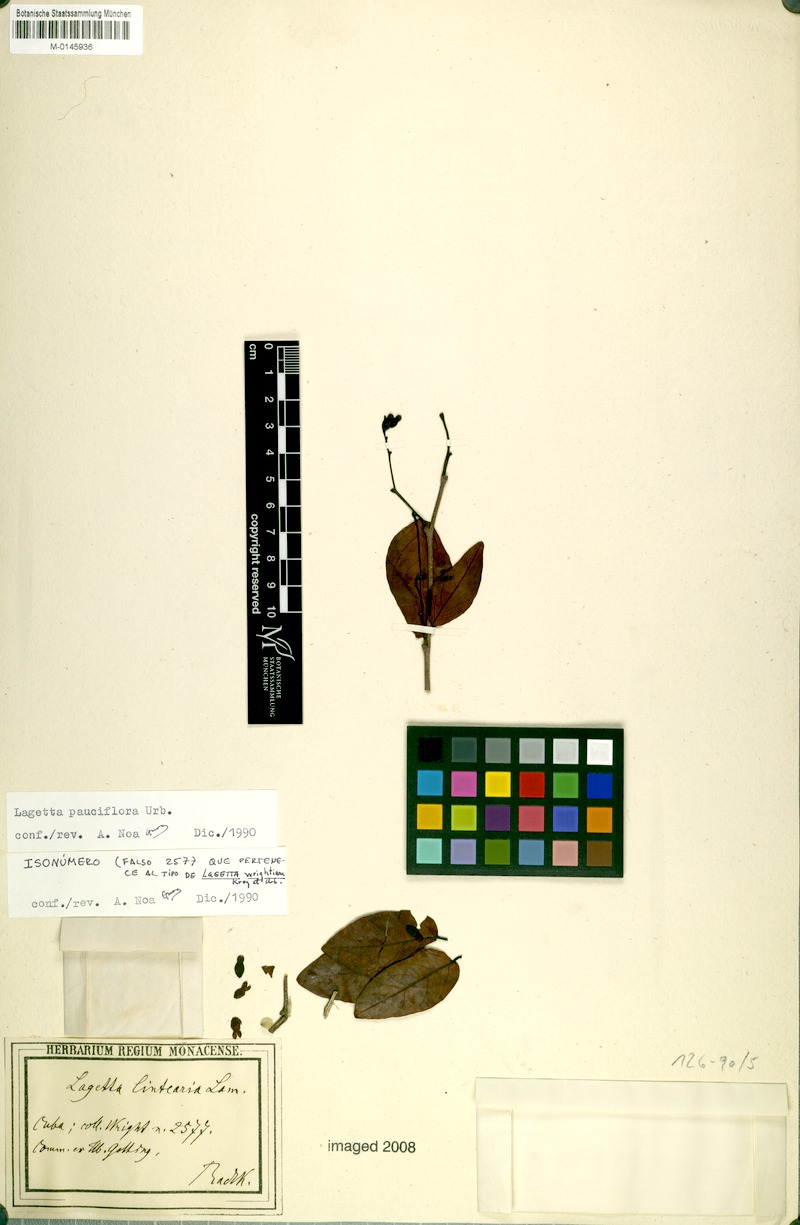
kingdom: Plantae
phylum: Tracheophyta
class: Magnoliopsida
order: Malvales
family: Thymelaeaceae
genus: Lagetta
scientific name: Lagetta valenzuelana
